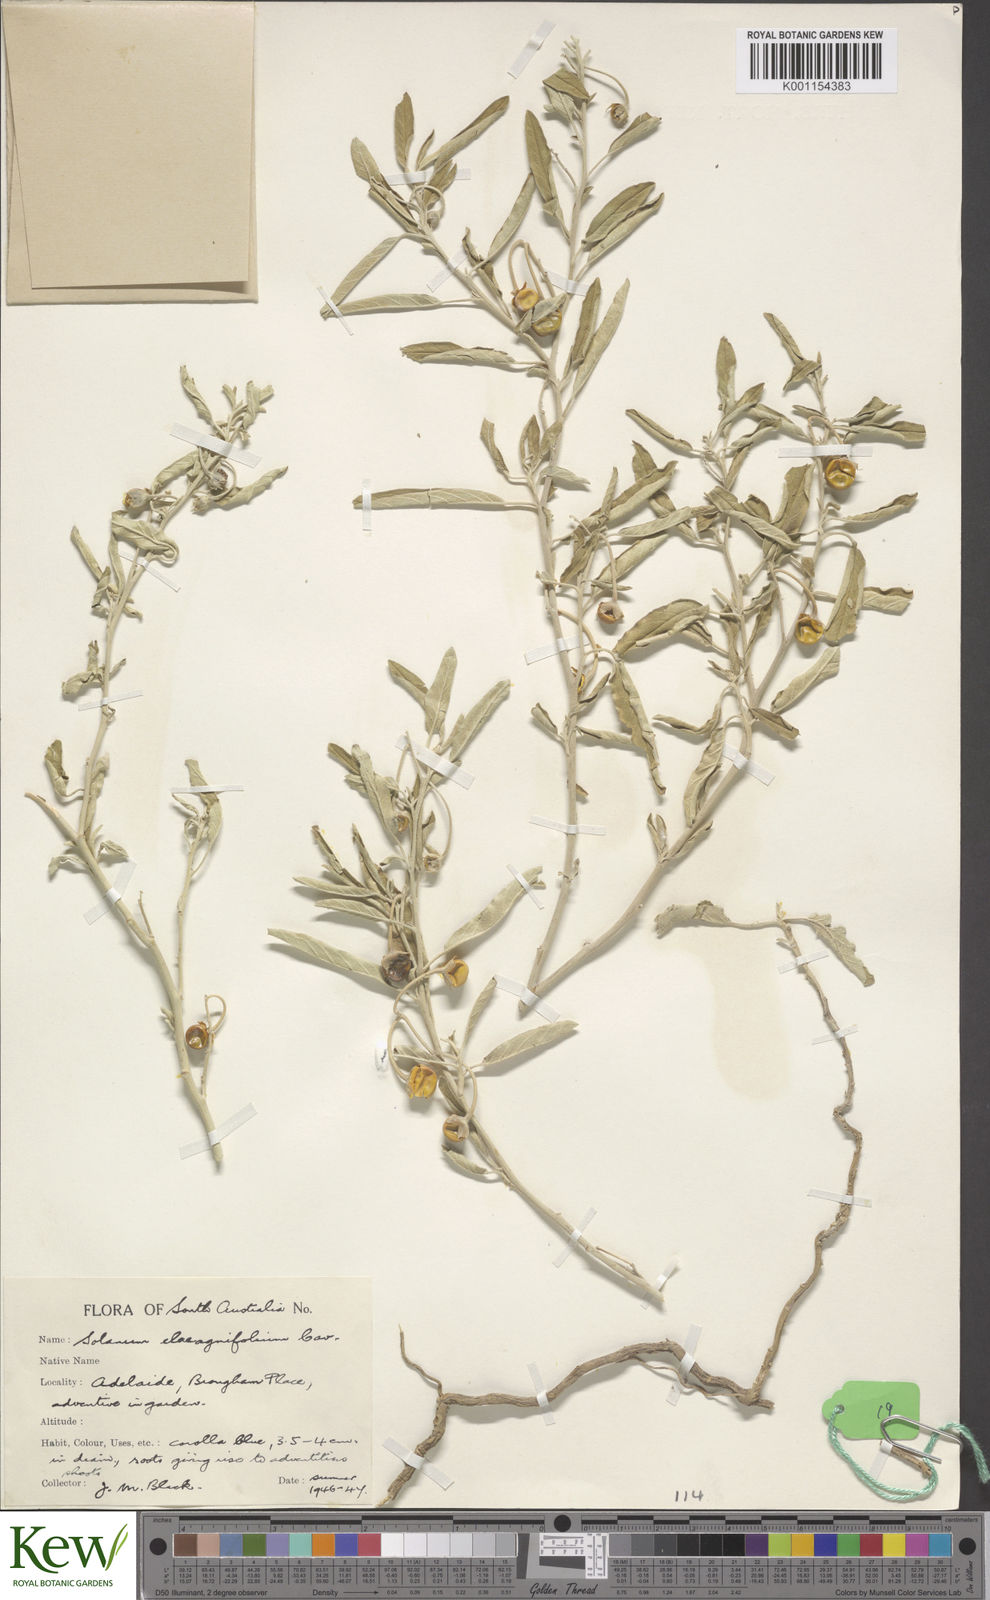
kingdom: Plantae
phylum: Tracheophyta
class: Magnoliopsida
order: Solanales
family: Solanaceae
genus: Solanum
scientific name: Solanum elaeagnifolium
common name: Silverleaf nightshade
